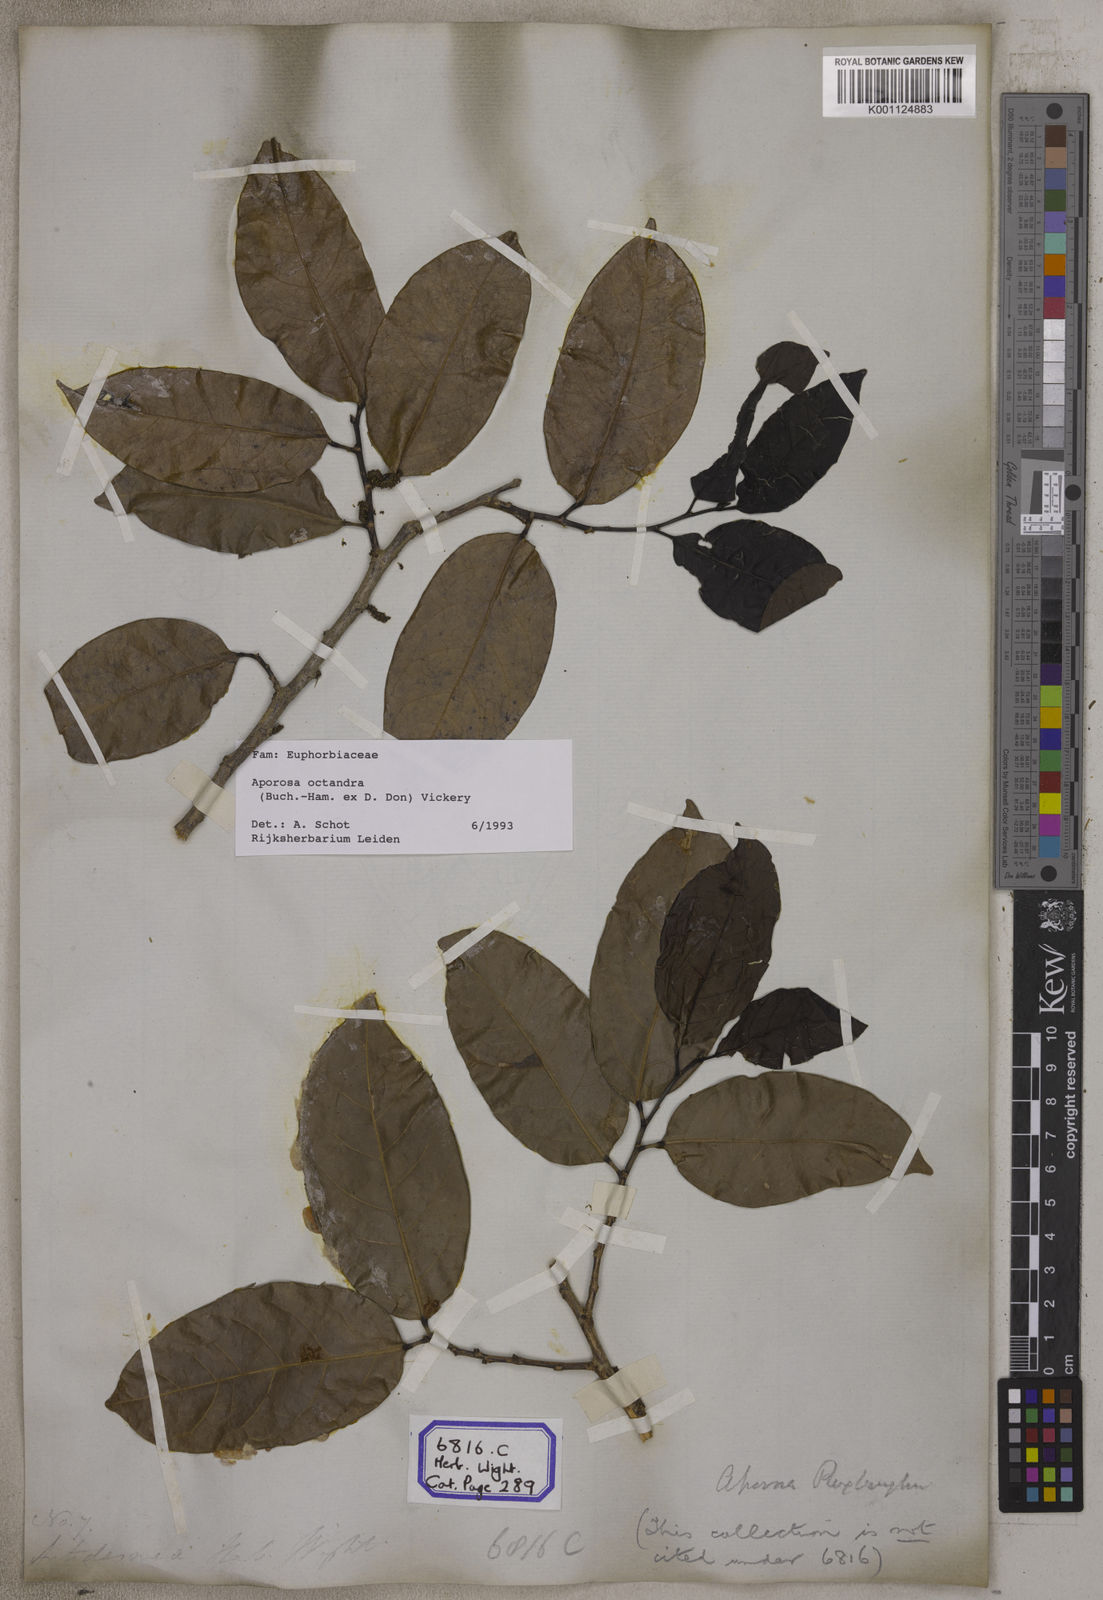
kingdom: Plantae
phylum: Tracheophyta
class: Magnoliopsida
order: Malpighiales
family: Phyllanthaceae
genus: Aporosa
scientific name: Aporosa
